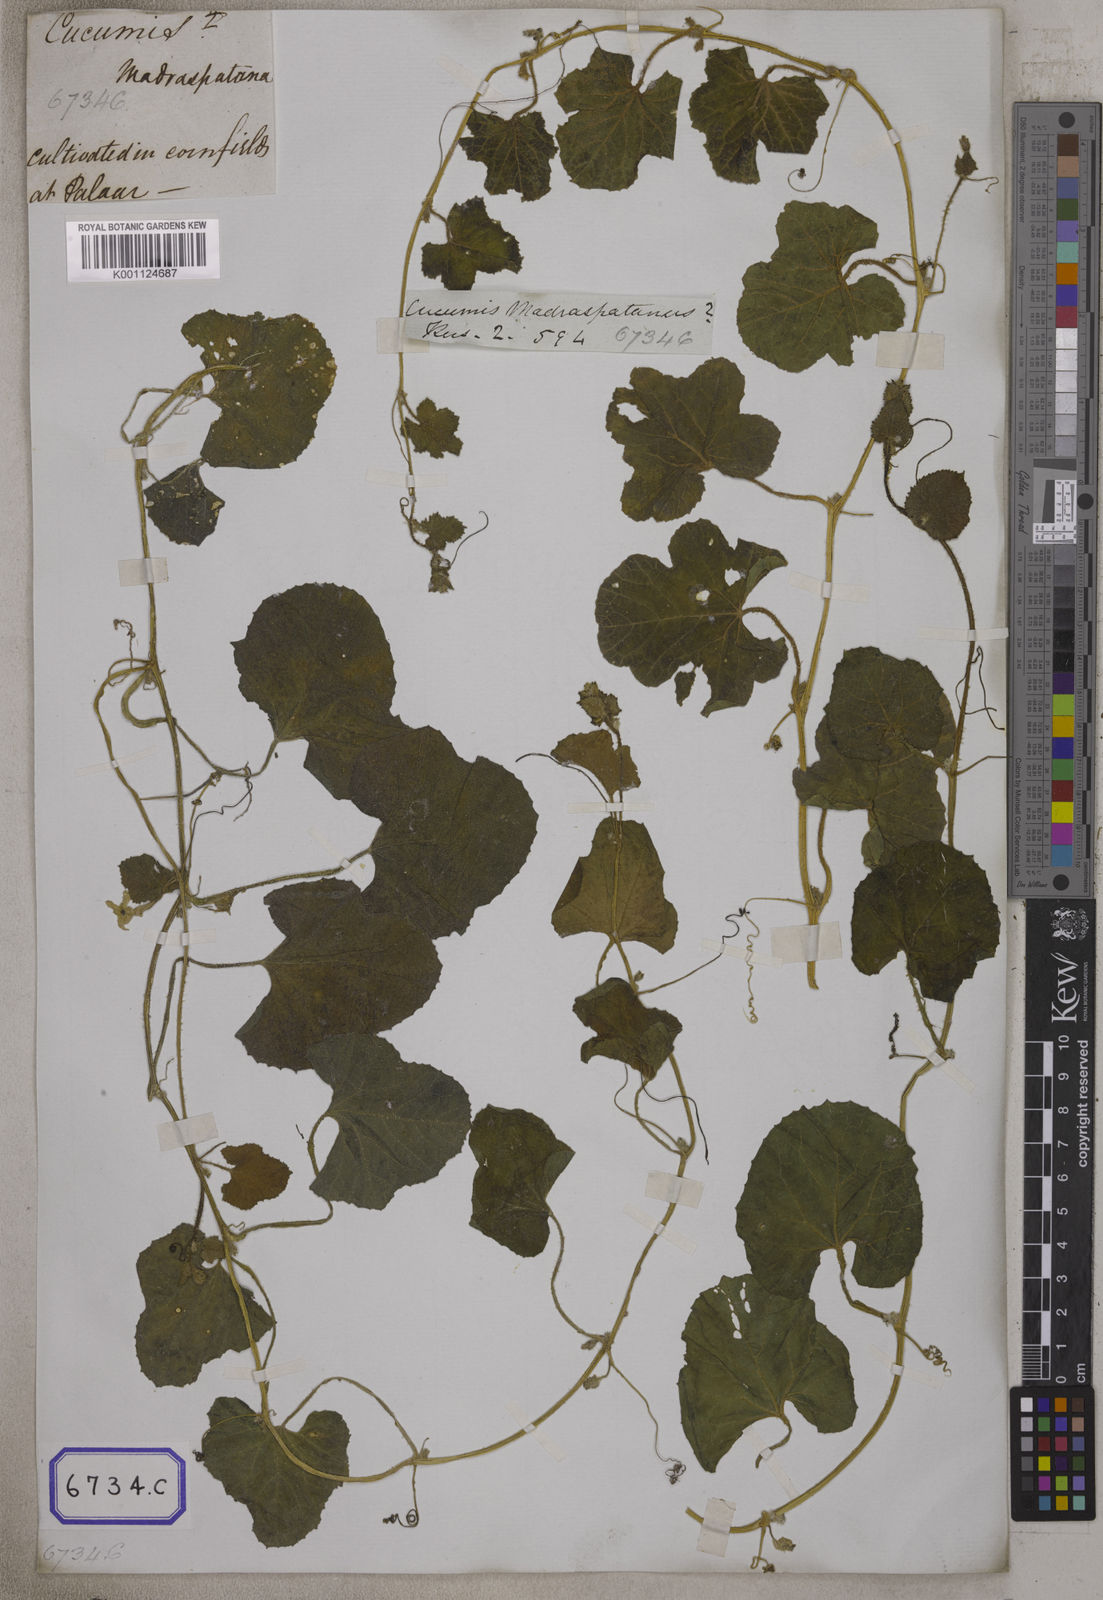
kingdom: Plantae
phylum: Tracheophyta
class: Magnoliopsida
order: Cucurbitales
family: Cucurbitaceae
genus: Cucumis
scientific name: Cucumis
